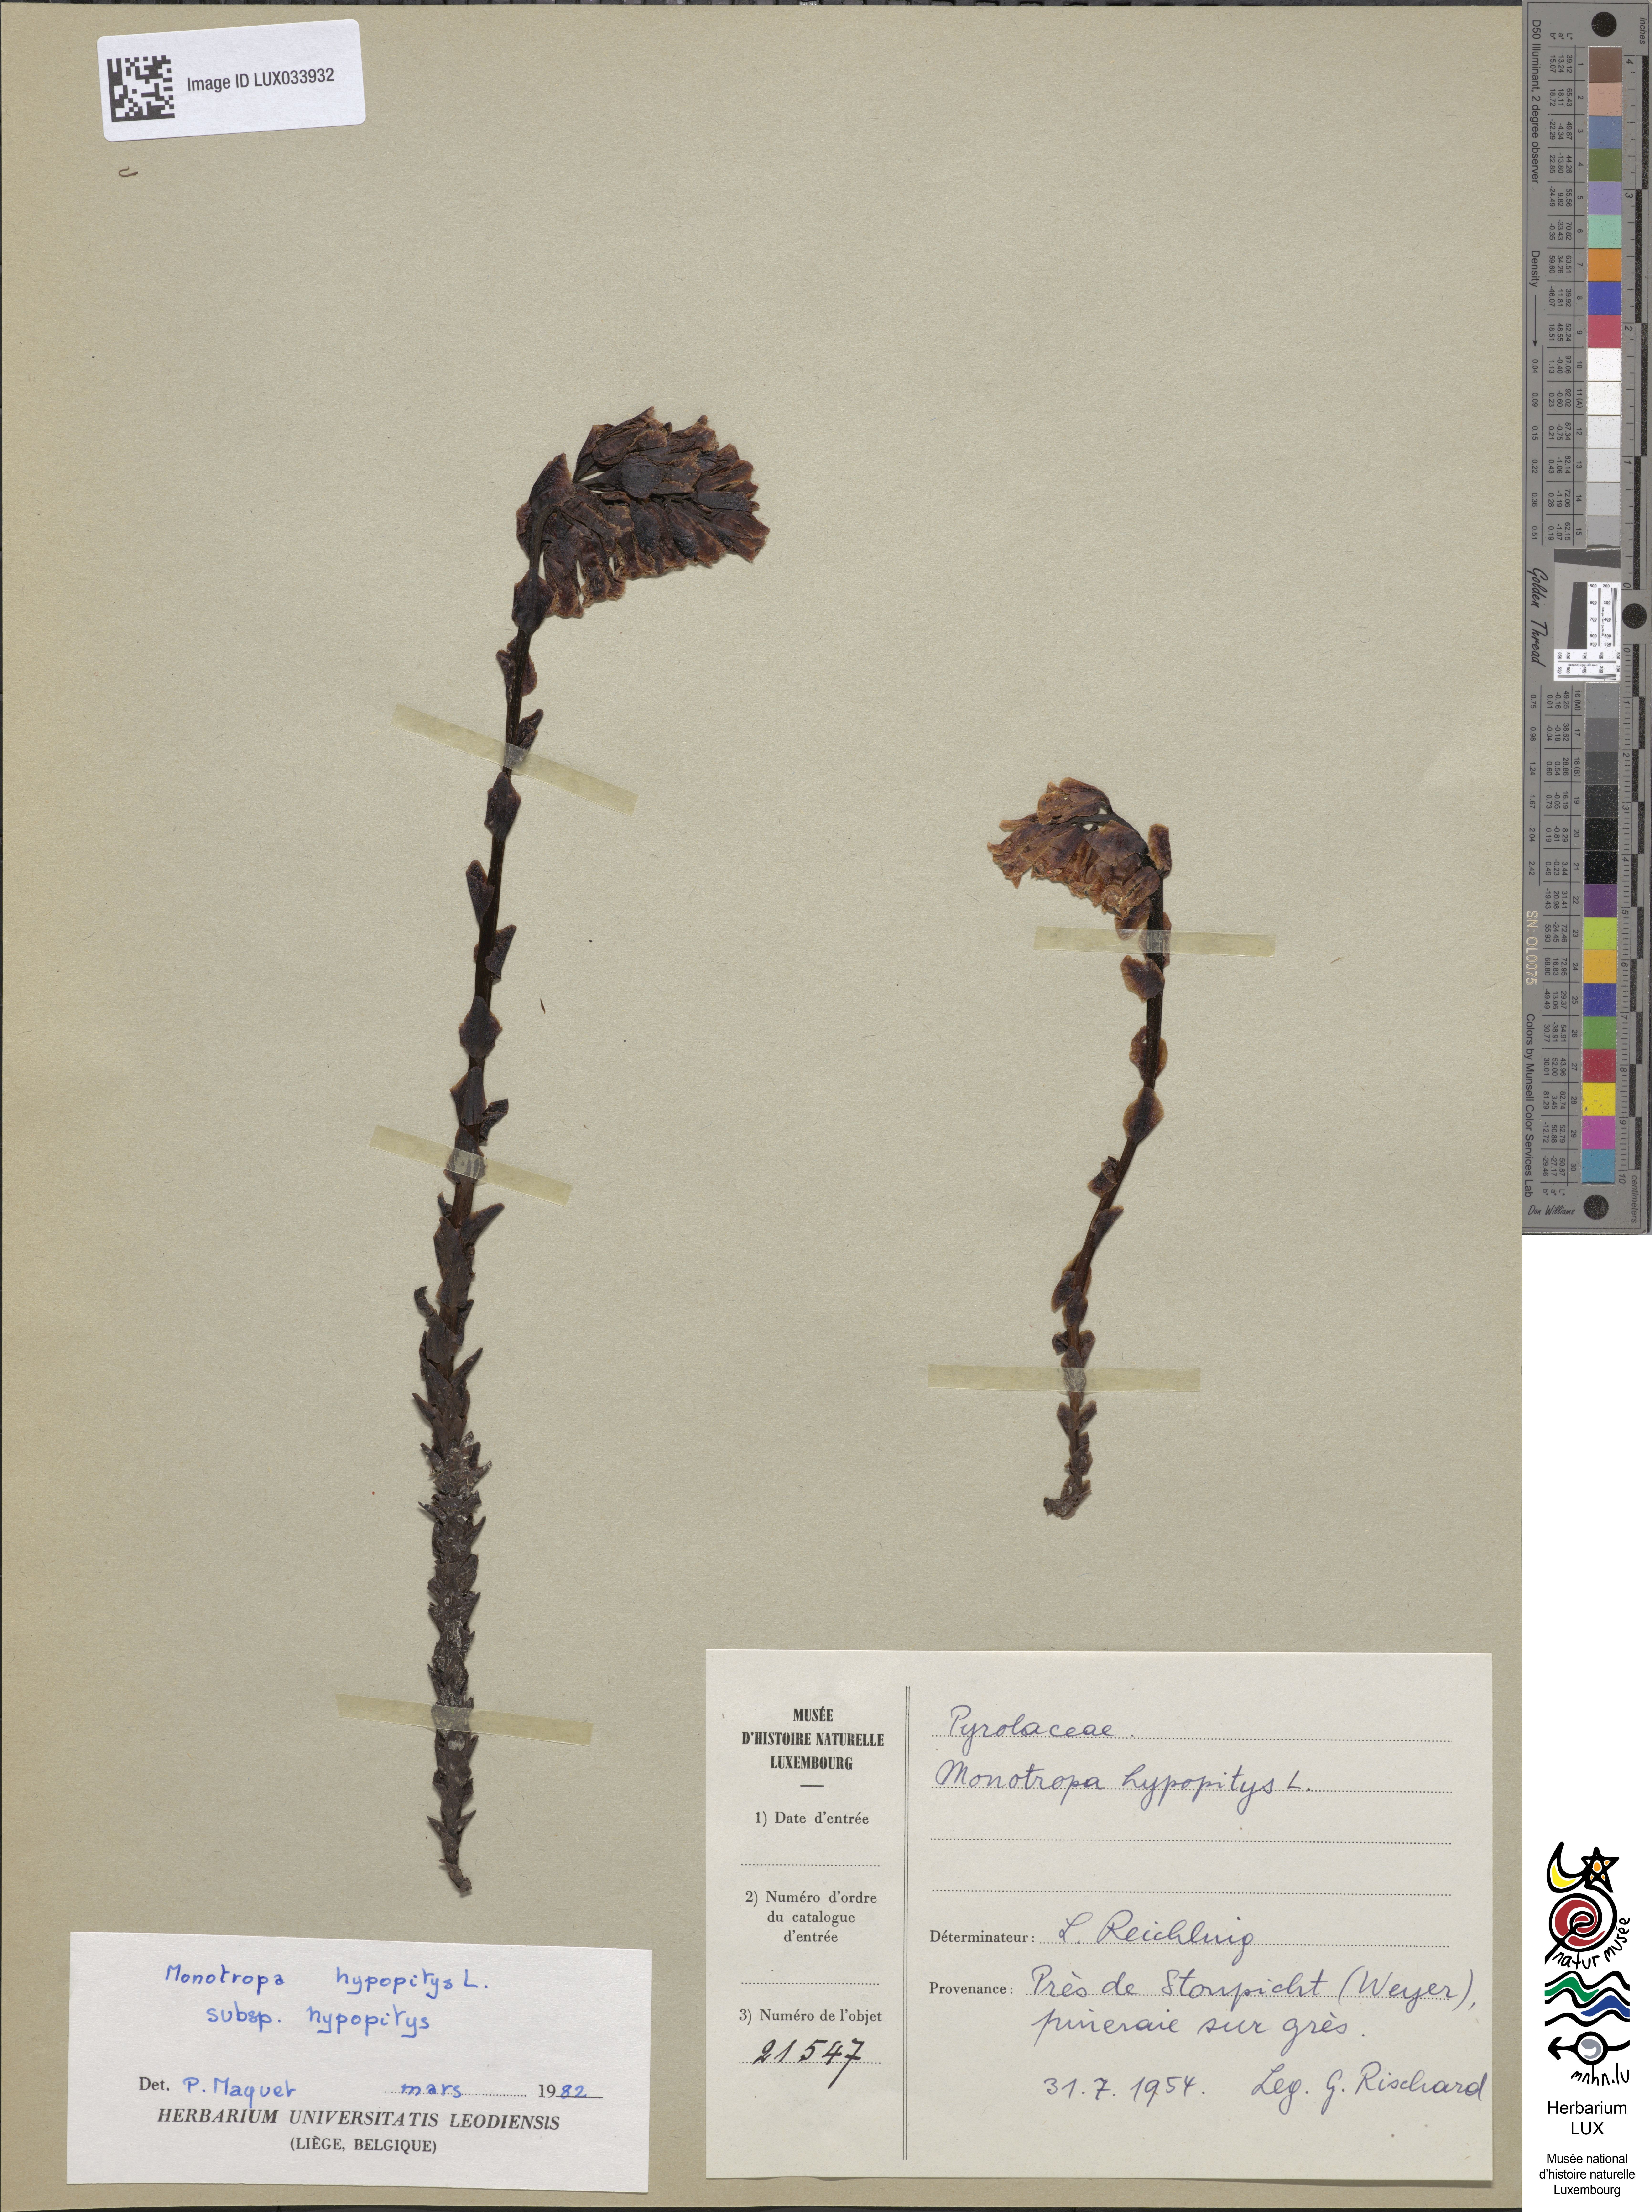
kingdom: Plantae
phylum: Tracheophyta
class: Magnoliopsida
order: Ericales
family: Ericaceae
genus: Hypopitys
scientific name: Hypopitys monotropa
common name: Yellow bird's-nest
